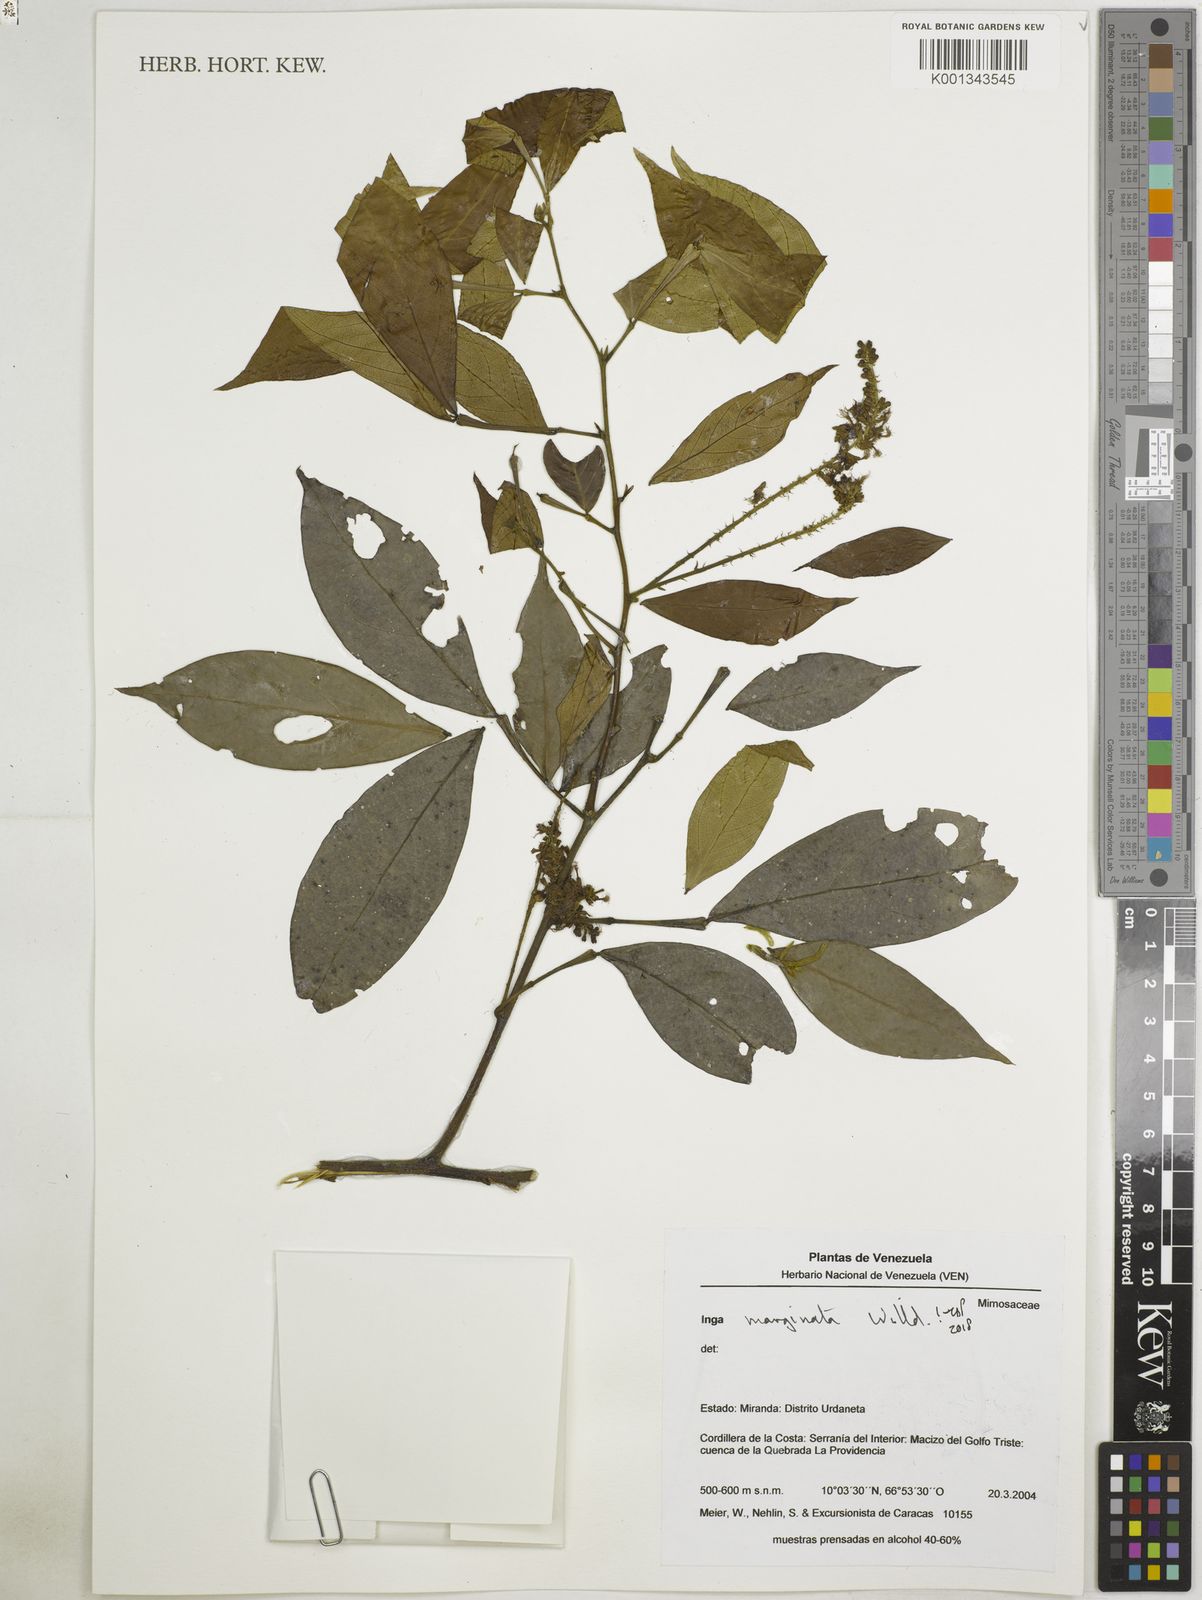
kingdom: Plantae
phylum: Tracheophyta
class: Magnoliopsida
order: Fabales
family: Fabaceae
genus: Inga
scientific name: Inga marginata
